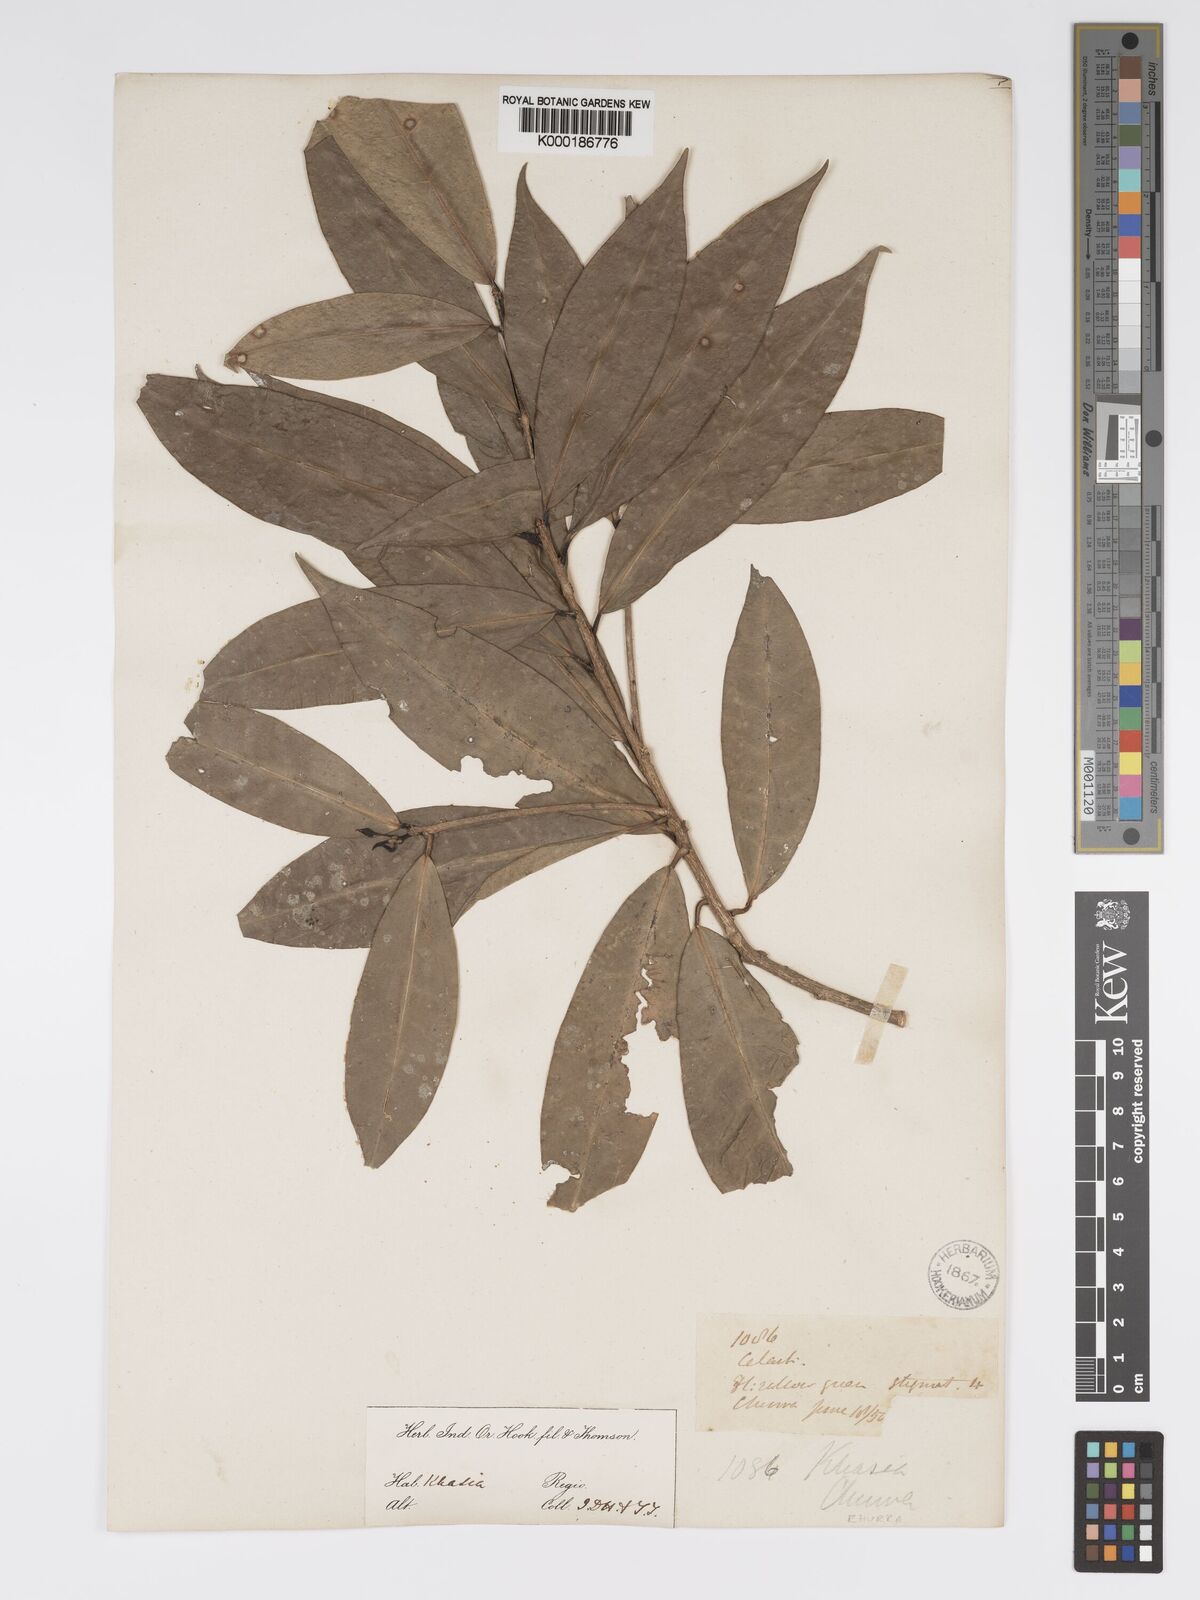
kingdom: Plantae
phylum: Tracheophyta
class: Magnoliopsida
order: Malpighiales
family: Phyllanthaceae
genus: Actephila
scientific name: Actephila excelsa
